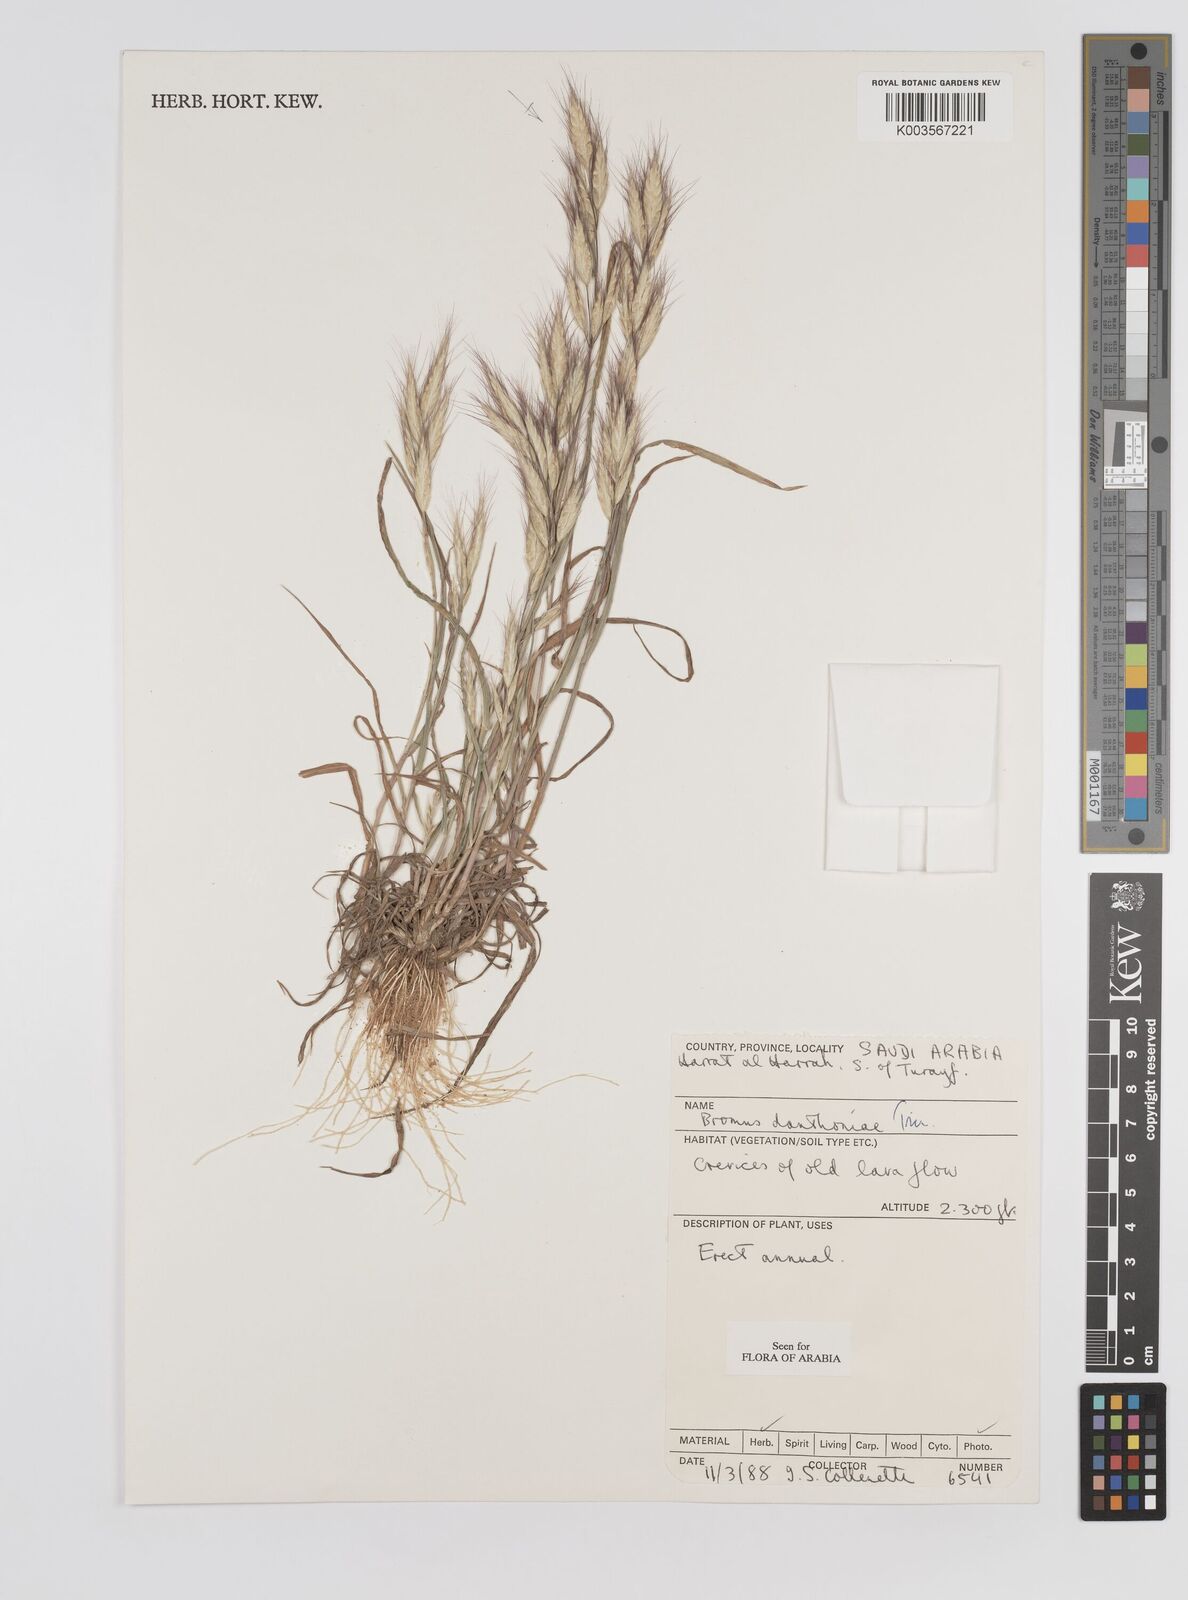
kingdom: Plantae
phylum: Tracheophyta
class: Liliopsida
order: Poales
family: Poaceae
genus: Bromus
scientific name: Bromus danthoniae
